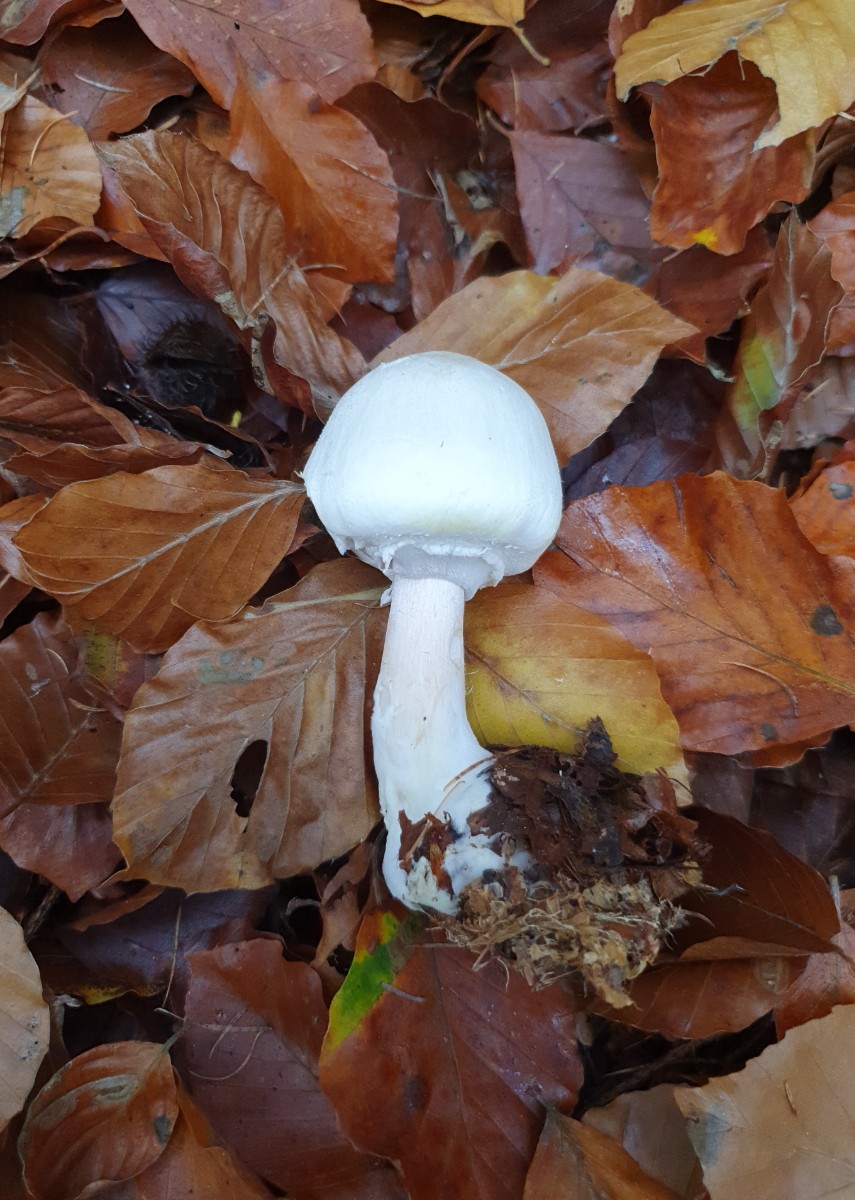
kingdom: Fungi
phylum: Basidiomycota
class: Agaricomycetes
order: Agaricales
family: Agaricaceae
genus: Agaricus
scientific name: Agaricus sylvicola
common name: gulhvid champignon
